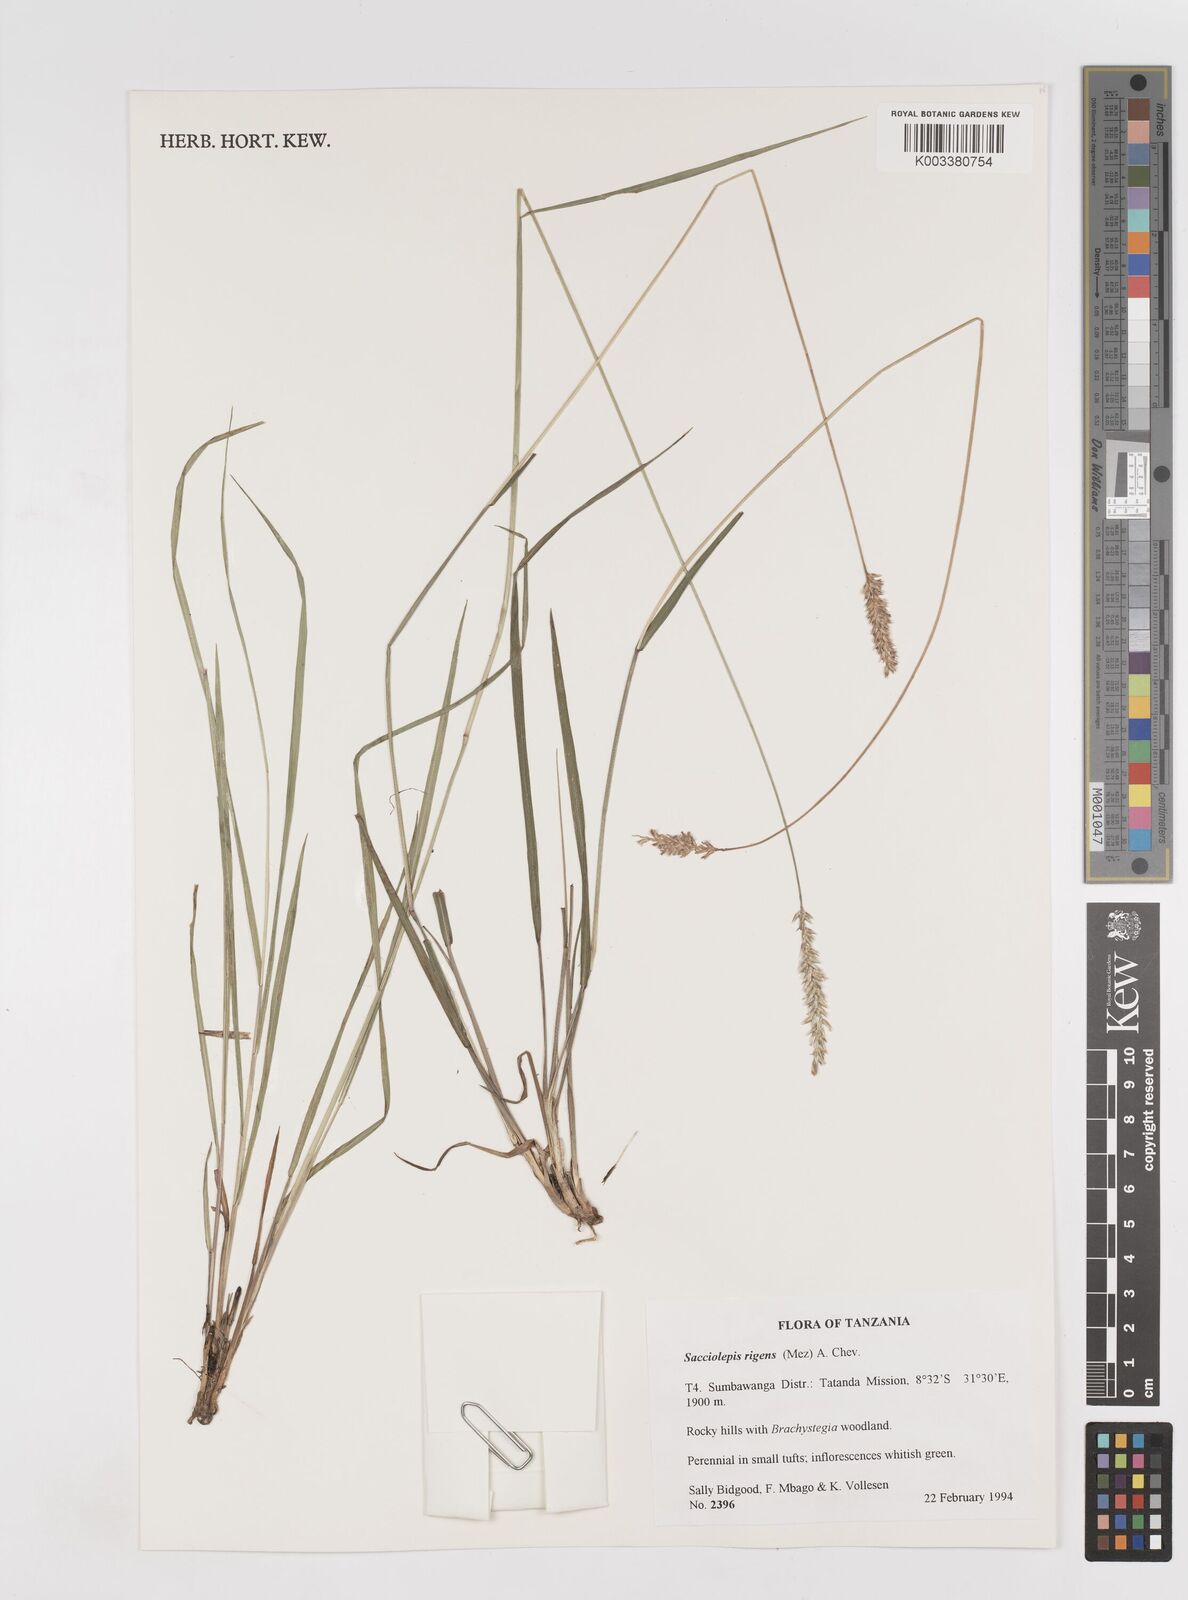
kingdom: Plantae
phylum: Tracheophyta
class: Liliopsida
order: Poales
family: Poaceae
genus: Sacciolepis
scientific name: Sacciolepis leptorrhachis
